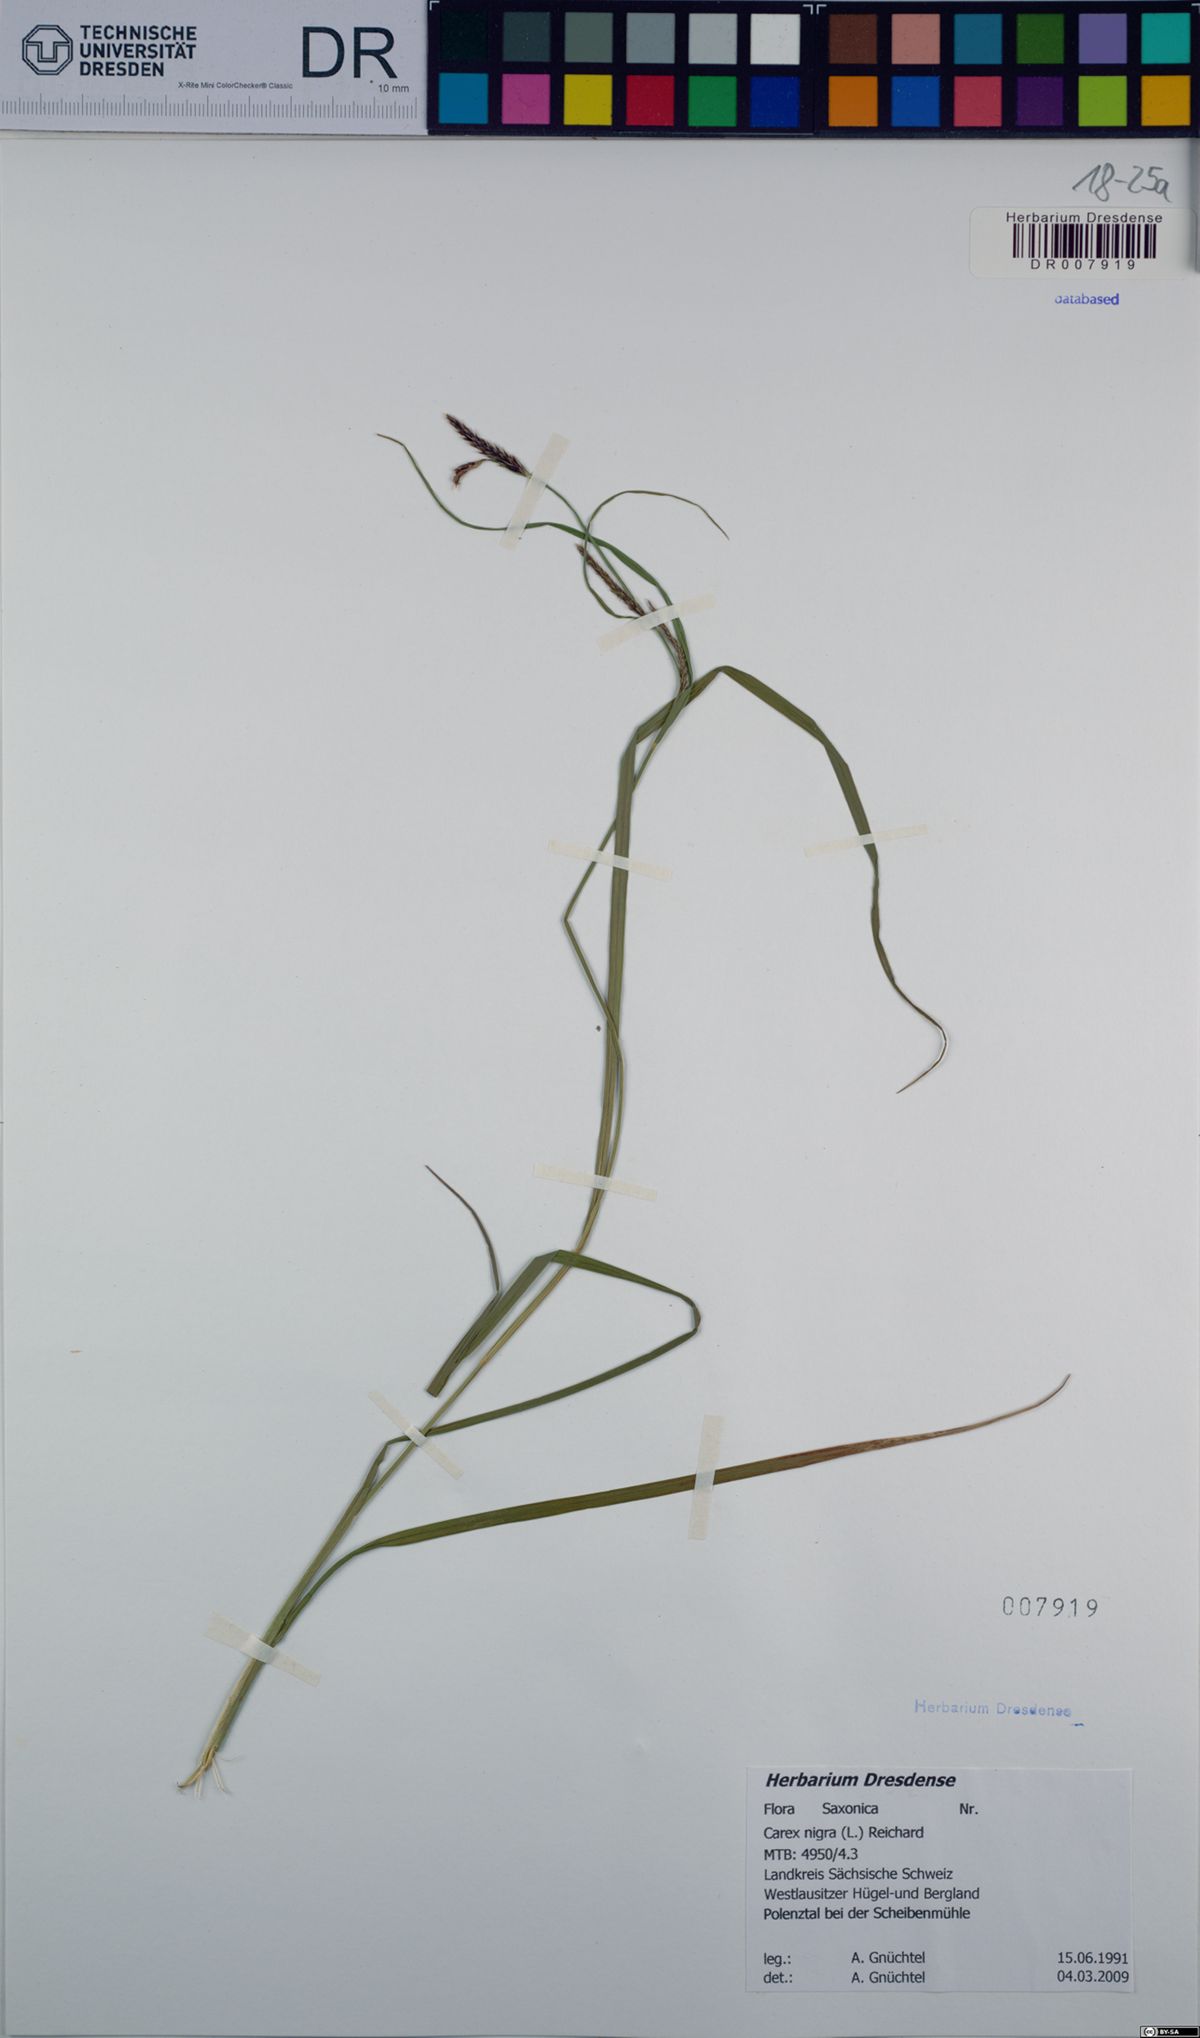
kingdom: Plantae
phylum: Tracheophyta
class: Liliopsida
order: Poales
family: Cyperaceae
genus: Carex
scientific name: Carex nigra
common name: Common sedge
